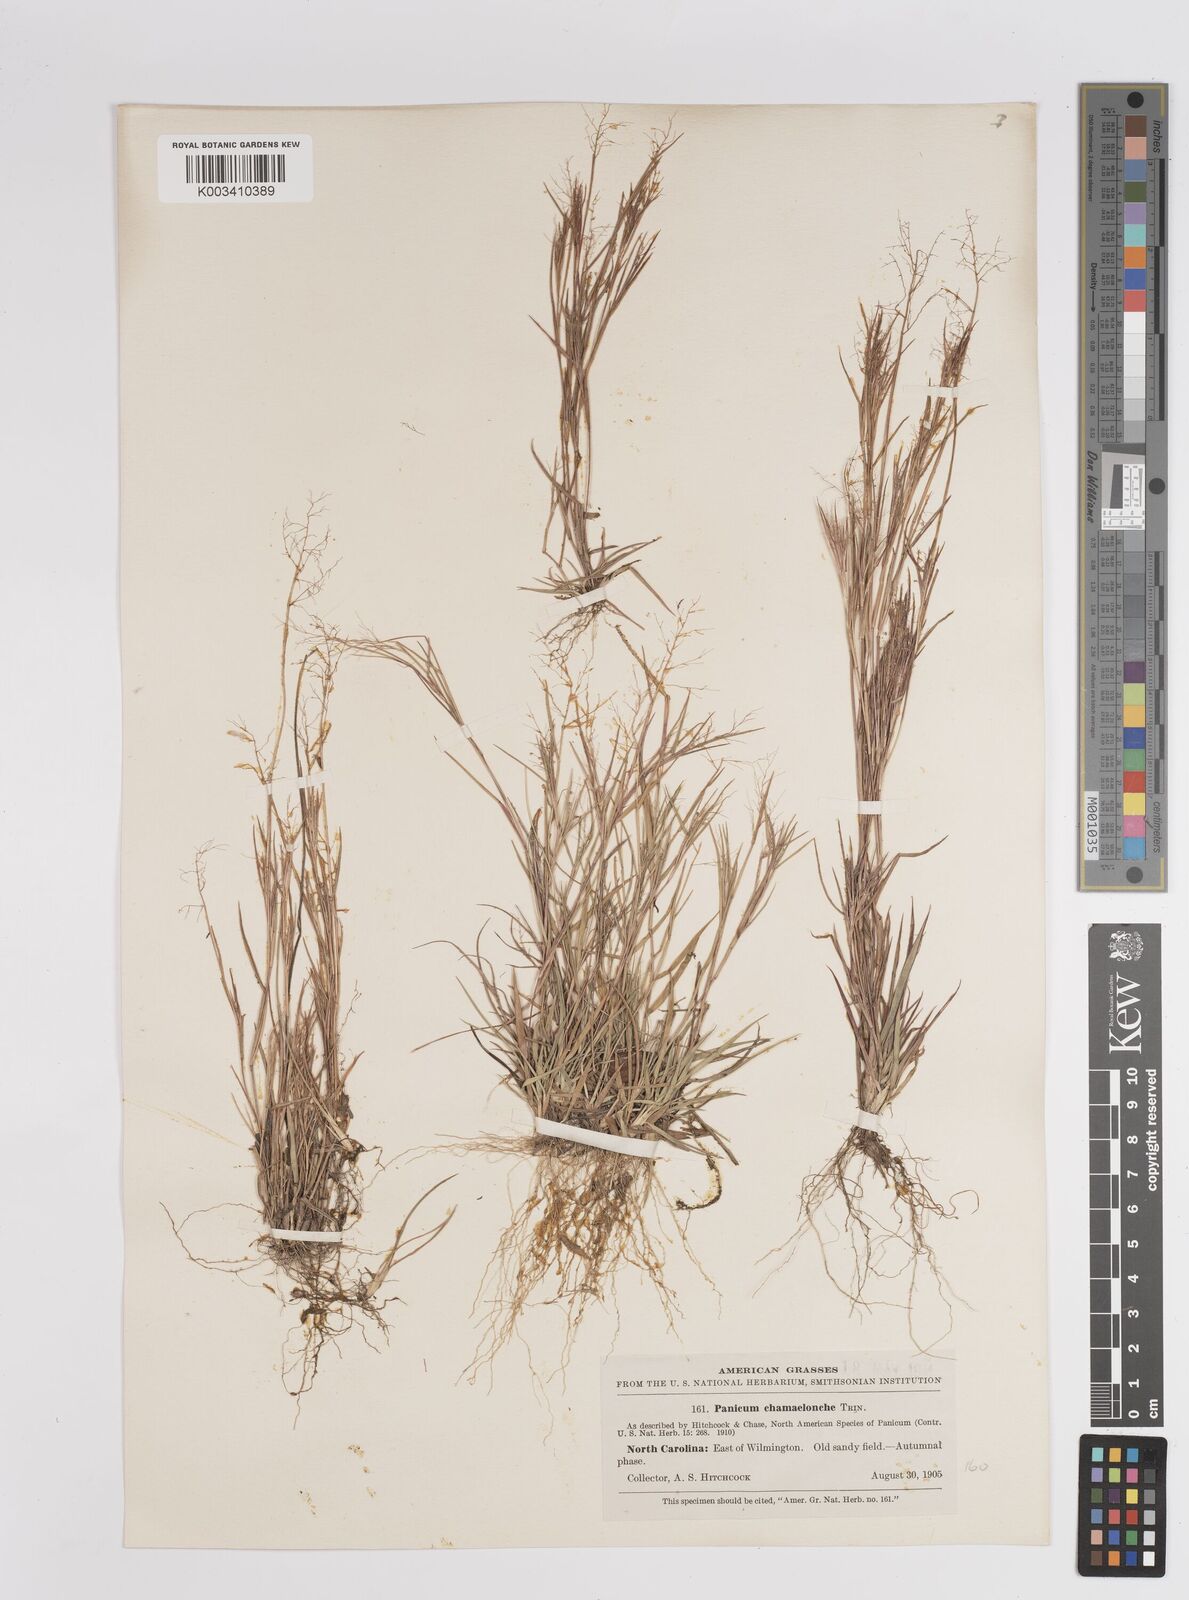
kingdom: Plantae
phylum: Tracheophyta
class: Liliopsida
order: Poales
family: Poaceae
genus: Dichanthelium
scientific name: Dichanthelium chamaelonche
